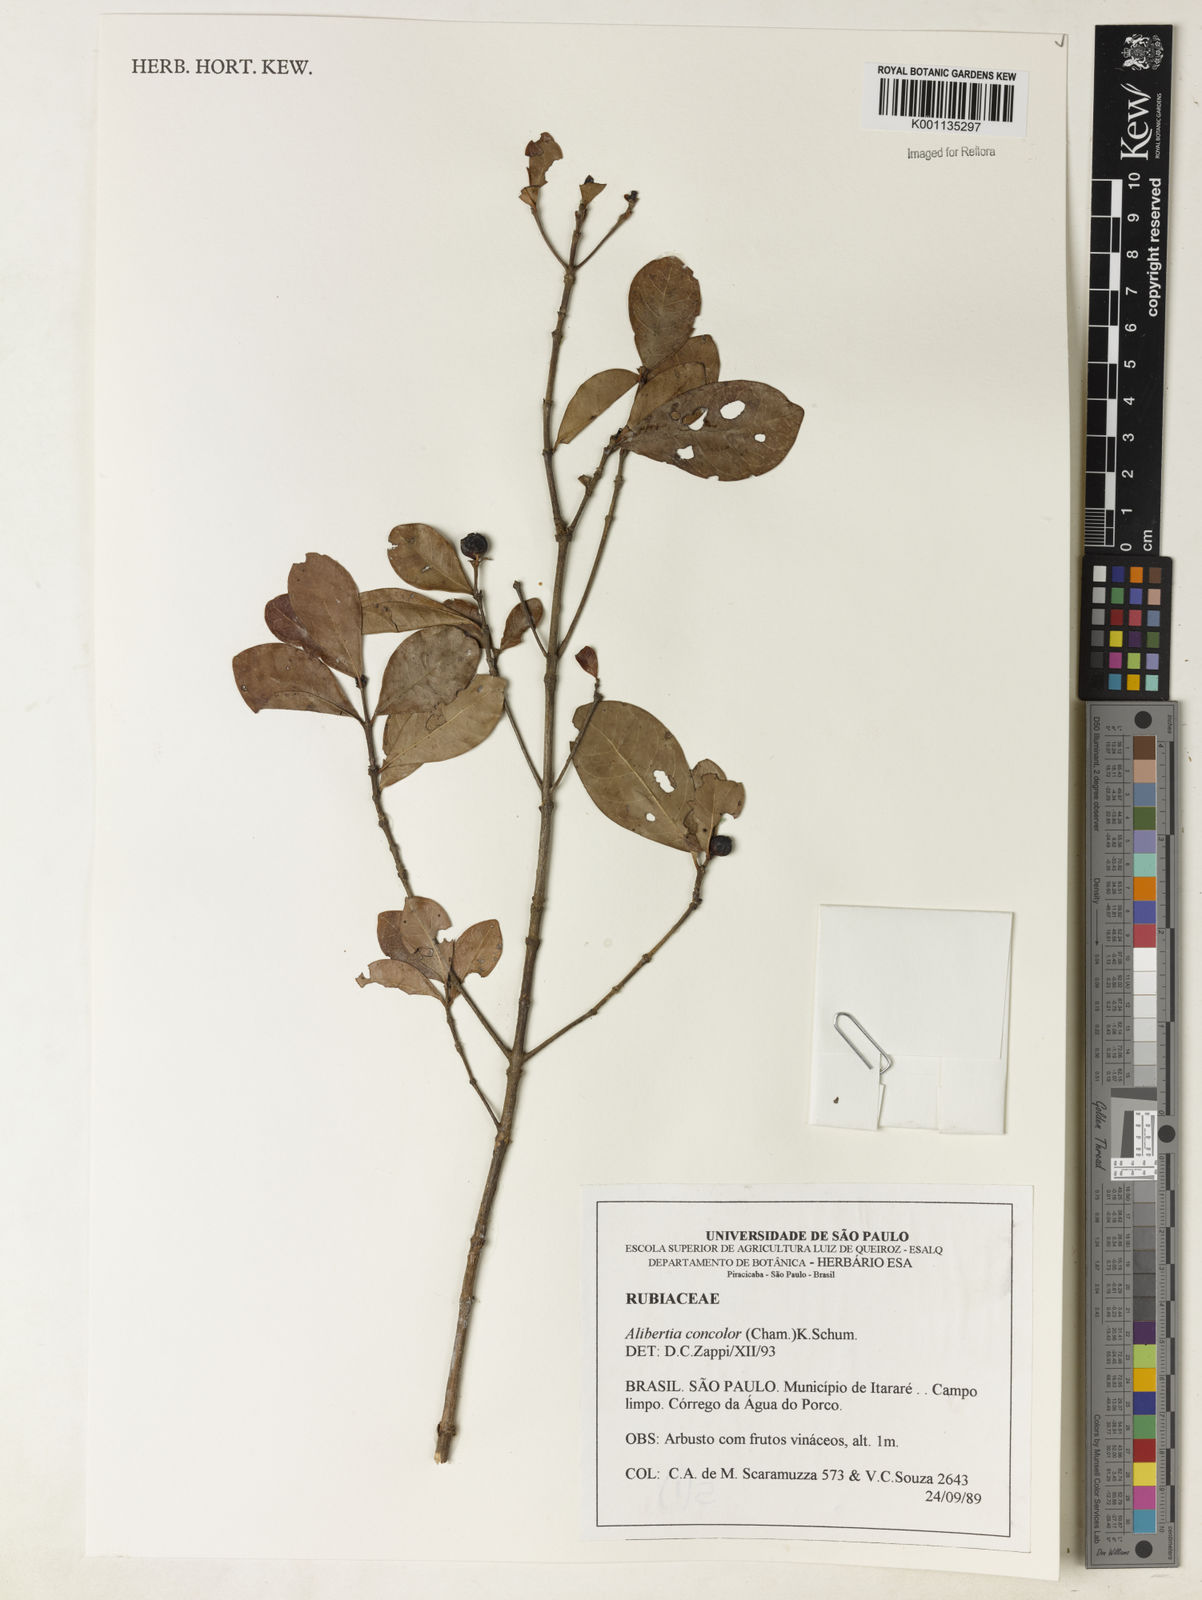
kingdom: Plantae
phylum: Tracheophyta
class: Magnoliopsida
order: Gentianales
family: Rubiaceae
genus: Cordiera
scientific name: Cordiera concolor
